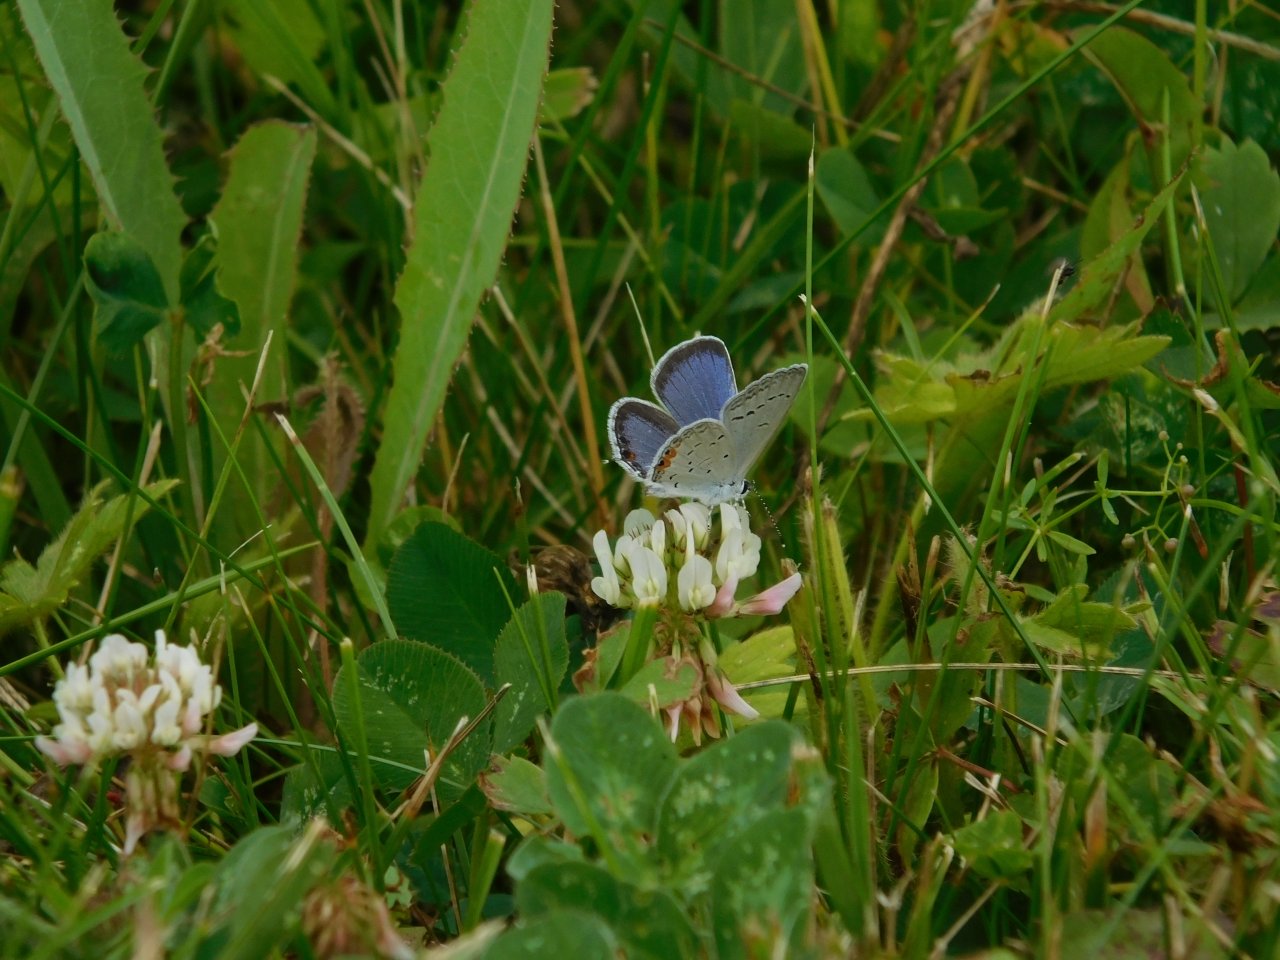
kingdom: Animalia
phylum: Arthropoda
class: Insecta
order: Lepidoptera
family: Lycaenidae
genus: Elkalyce
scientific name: Elkalyce comyntas
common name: Eastern Tailed-Blue
